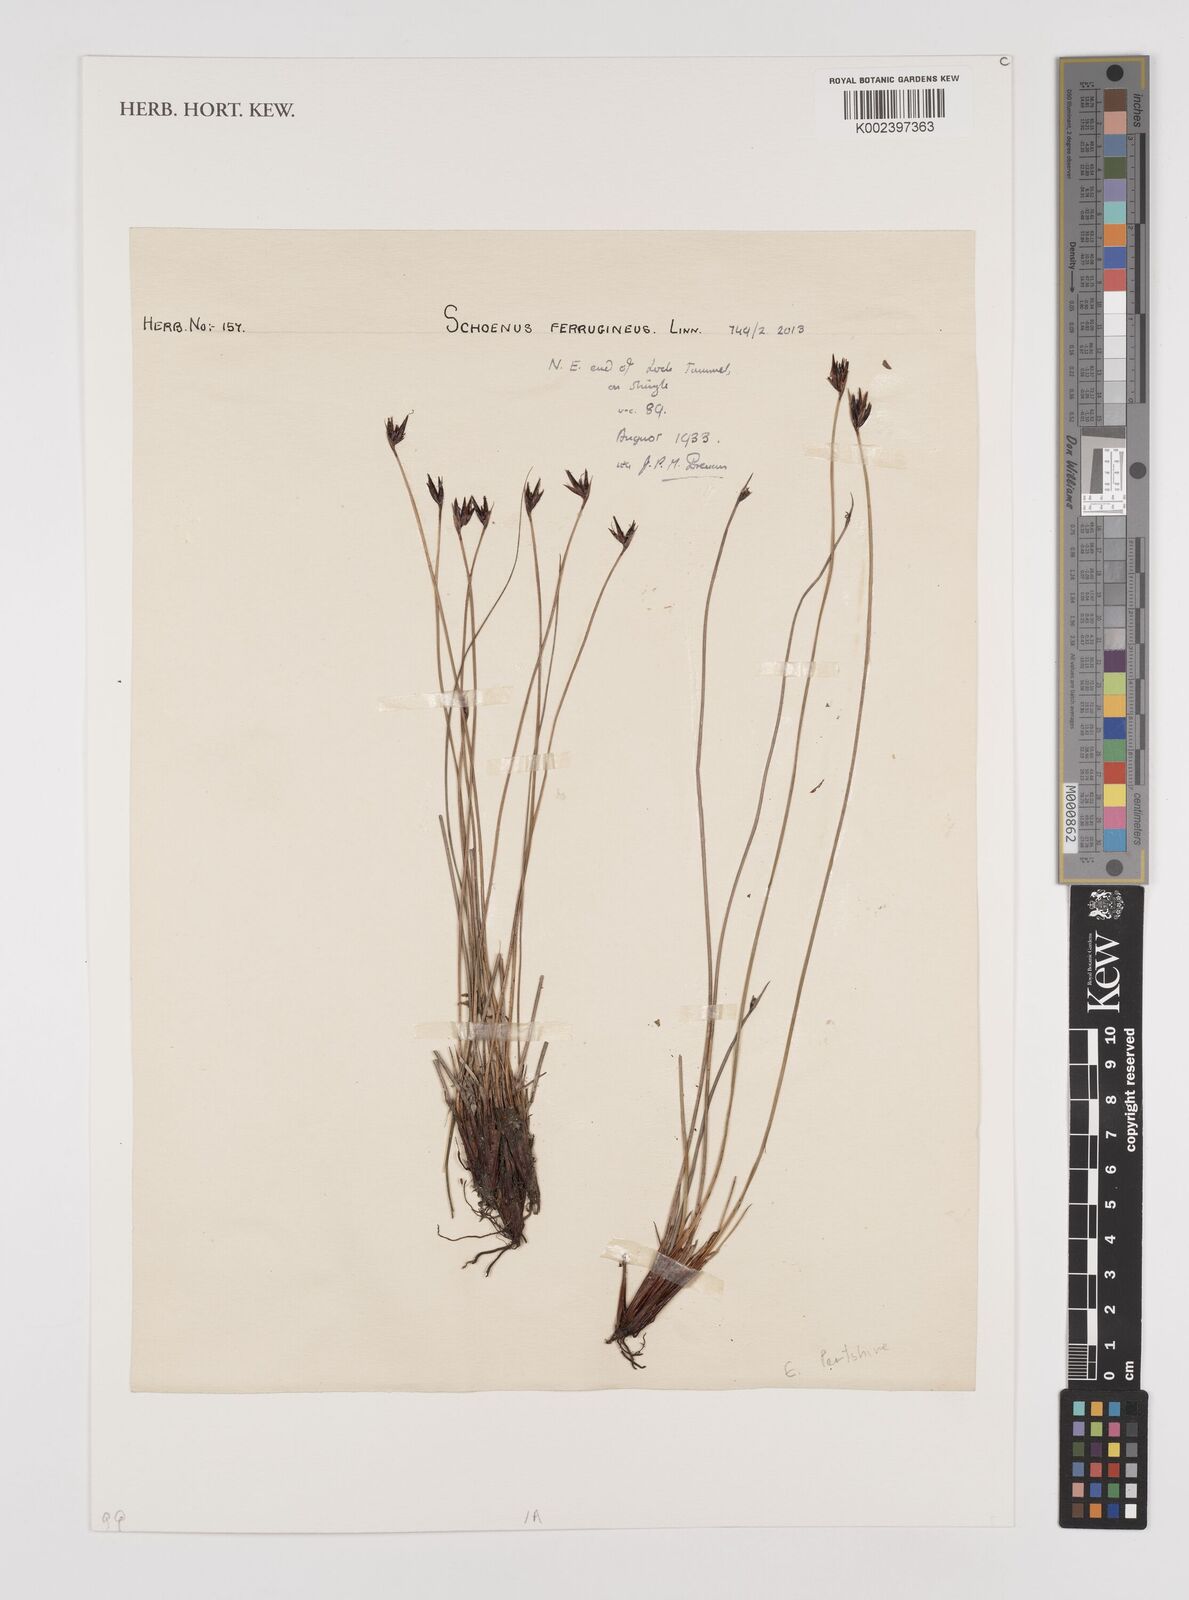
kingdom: Plantae
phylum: Tracheophyta
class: Liliopsida
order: Poales
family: Cyperaceae
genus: Schoenus
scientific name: Schoenus ferrugineus
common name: Brown bog-rush
